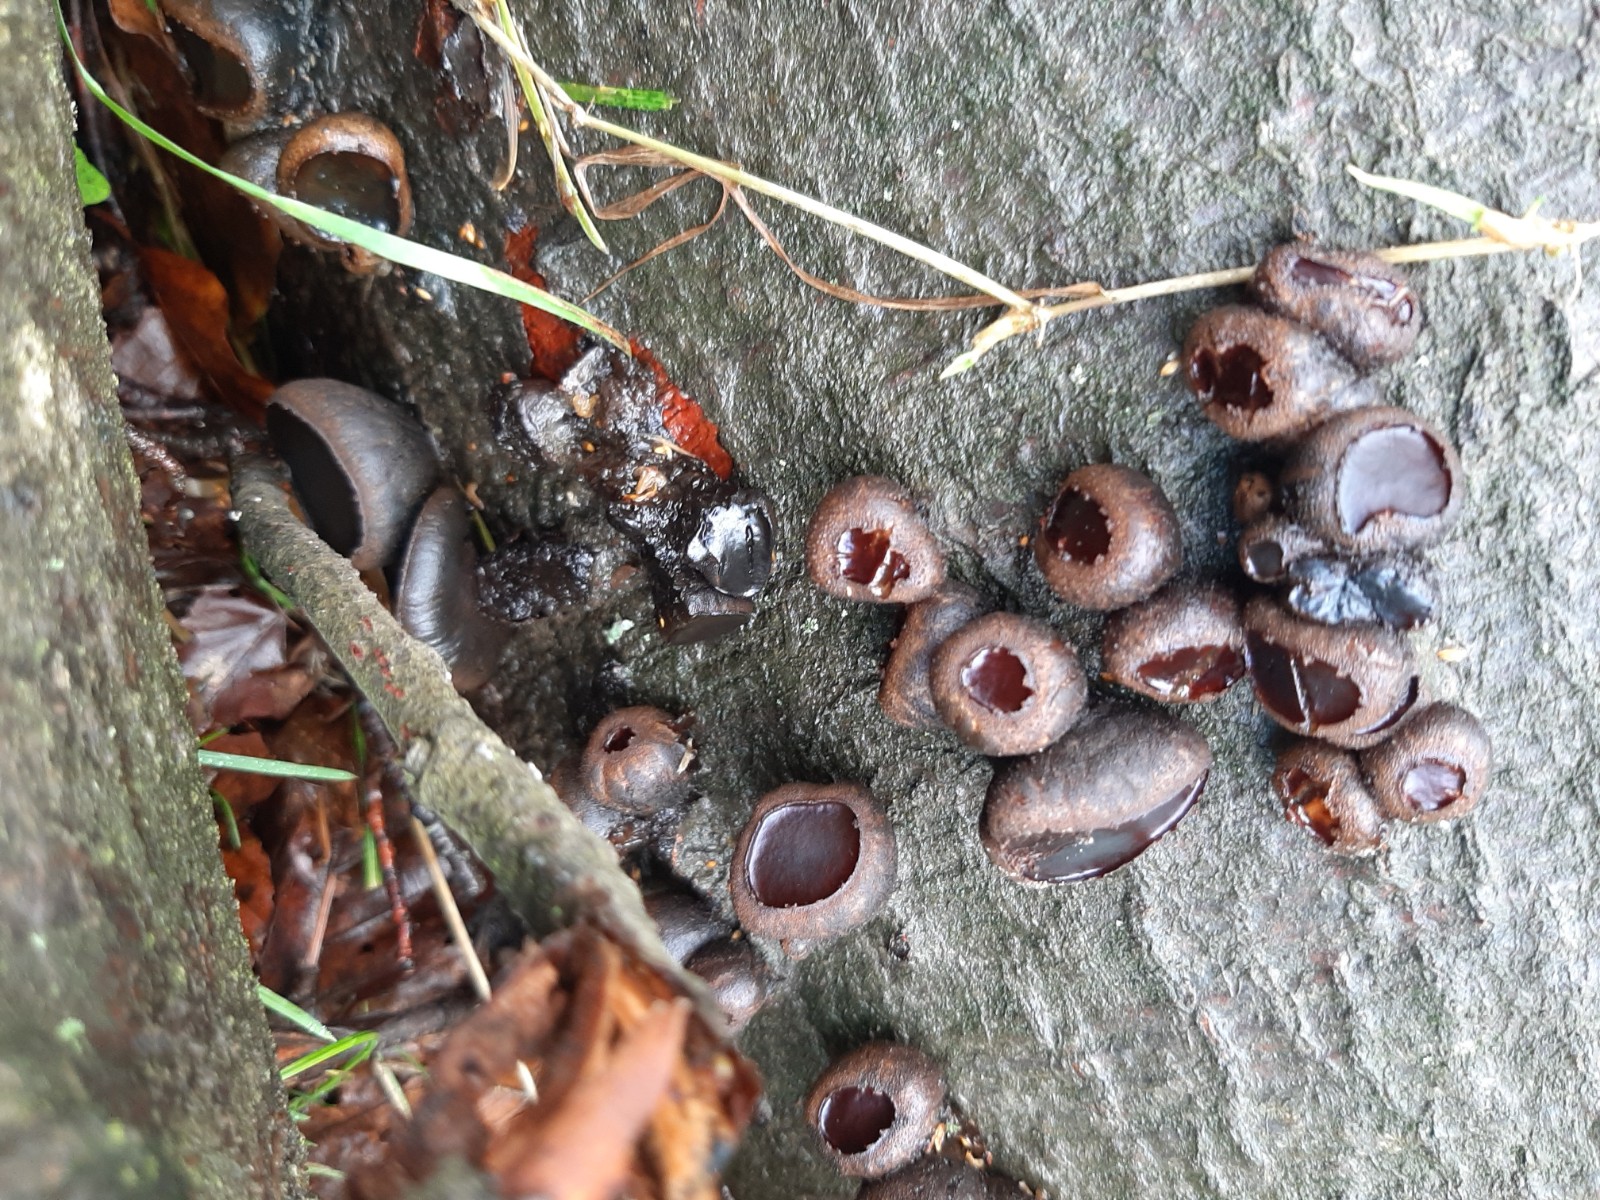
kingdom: Fungi
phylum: Ascomycota
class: Leotiomycetes
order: Phacidiales
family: Phacidiaceae
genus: Bulgaria
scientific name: Bulgaria inquinans
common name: afsmittende topsvamp
